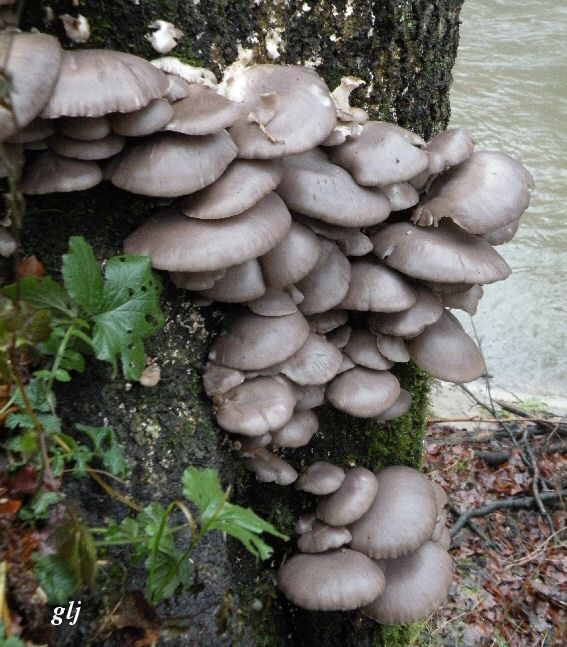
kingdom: Fungi
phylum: Basidiomycota
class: Agaricomycetes
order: Agaricales
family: Pleurotaceae
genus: Pleurotus
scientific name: Pleurotus ostreatus
